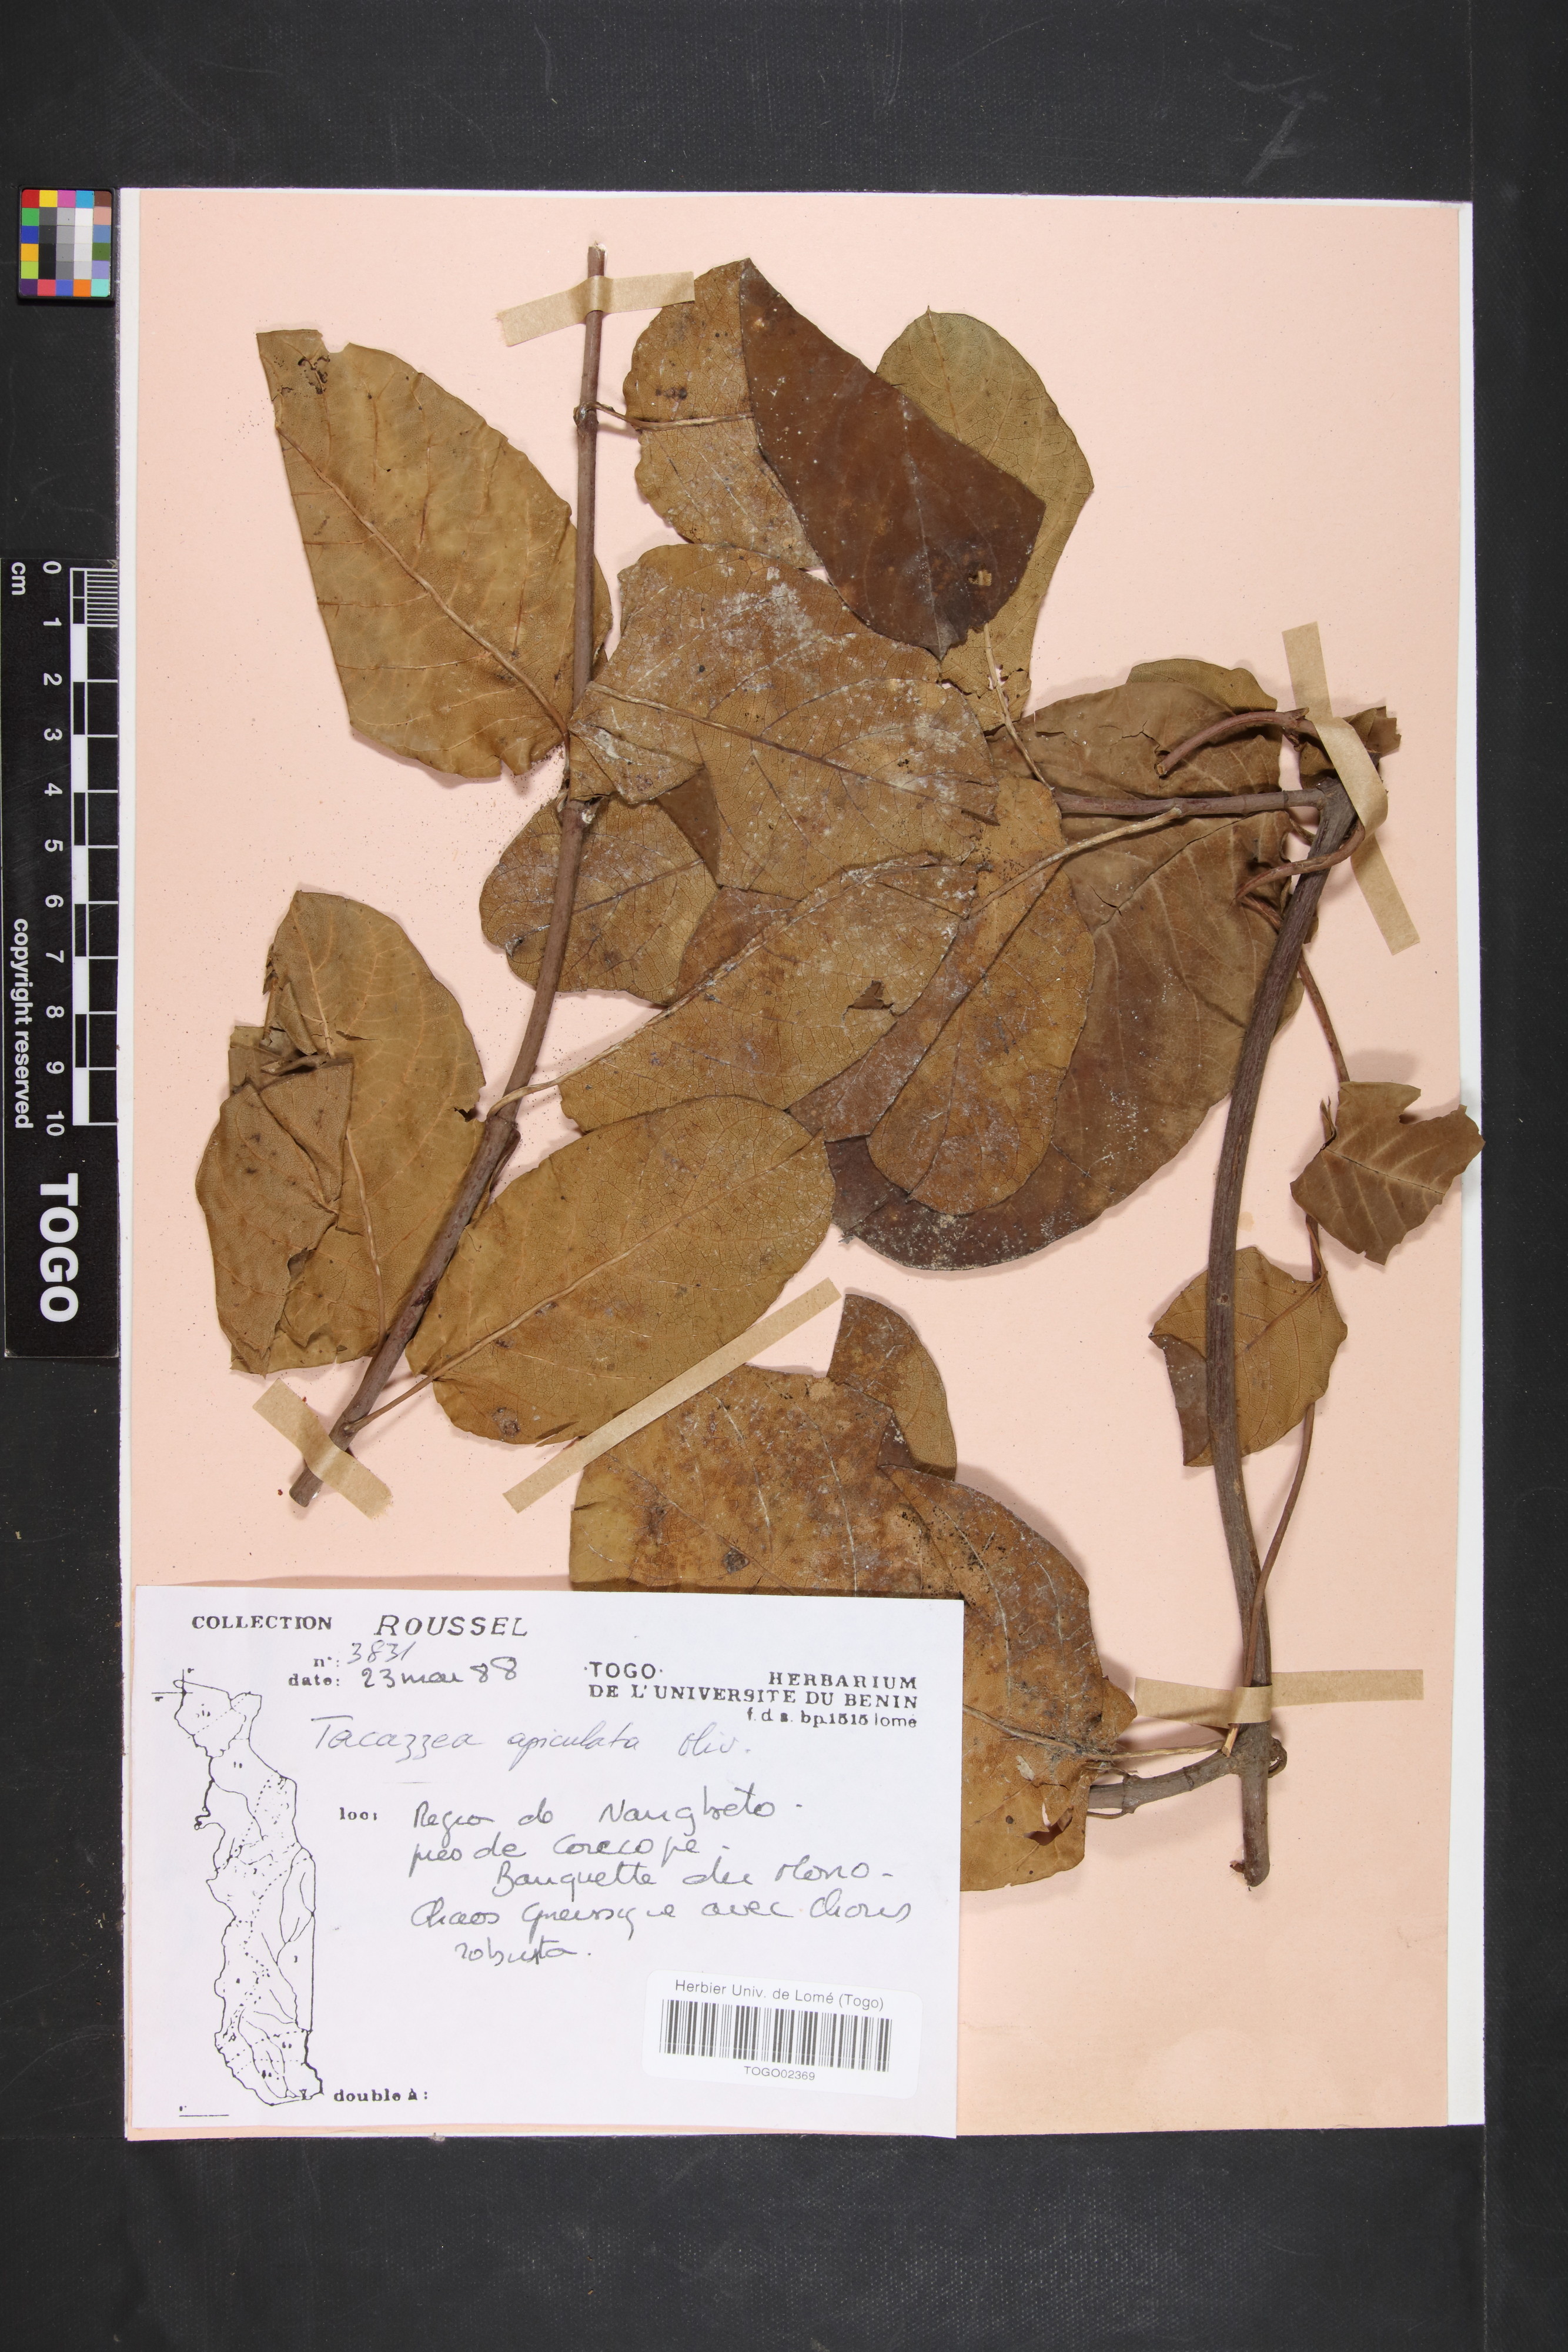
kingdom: Plantae
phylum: Tracheophyta
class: Magnoliopsida
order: Gentianales
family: Apocynaceae
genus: Tacazzea
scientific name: Tacazzea apiculata
